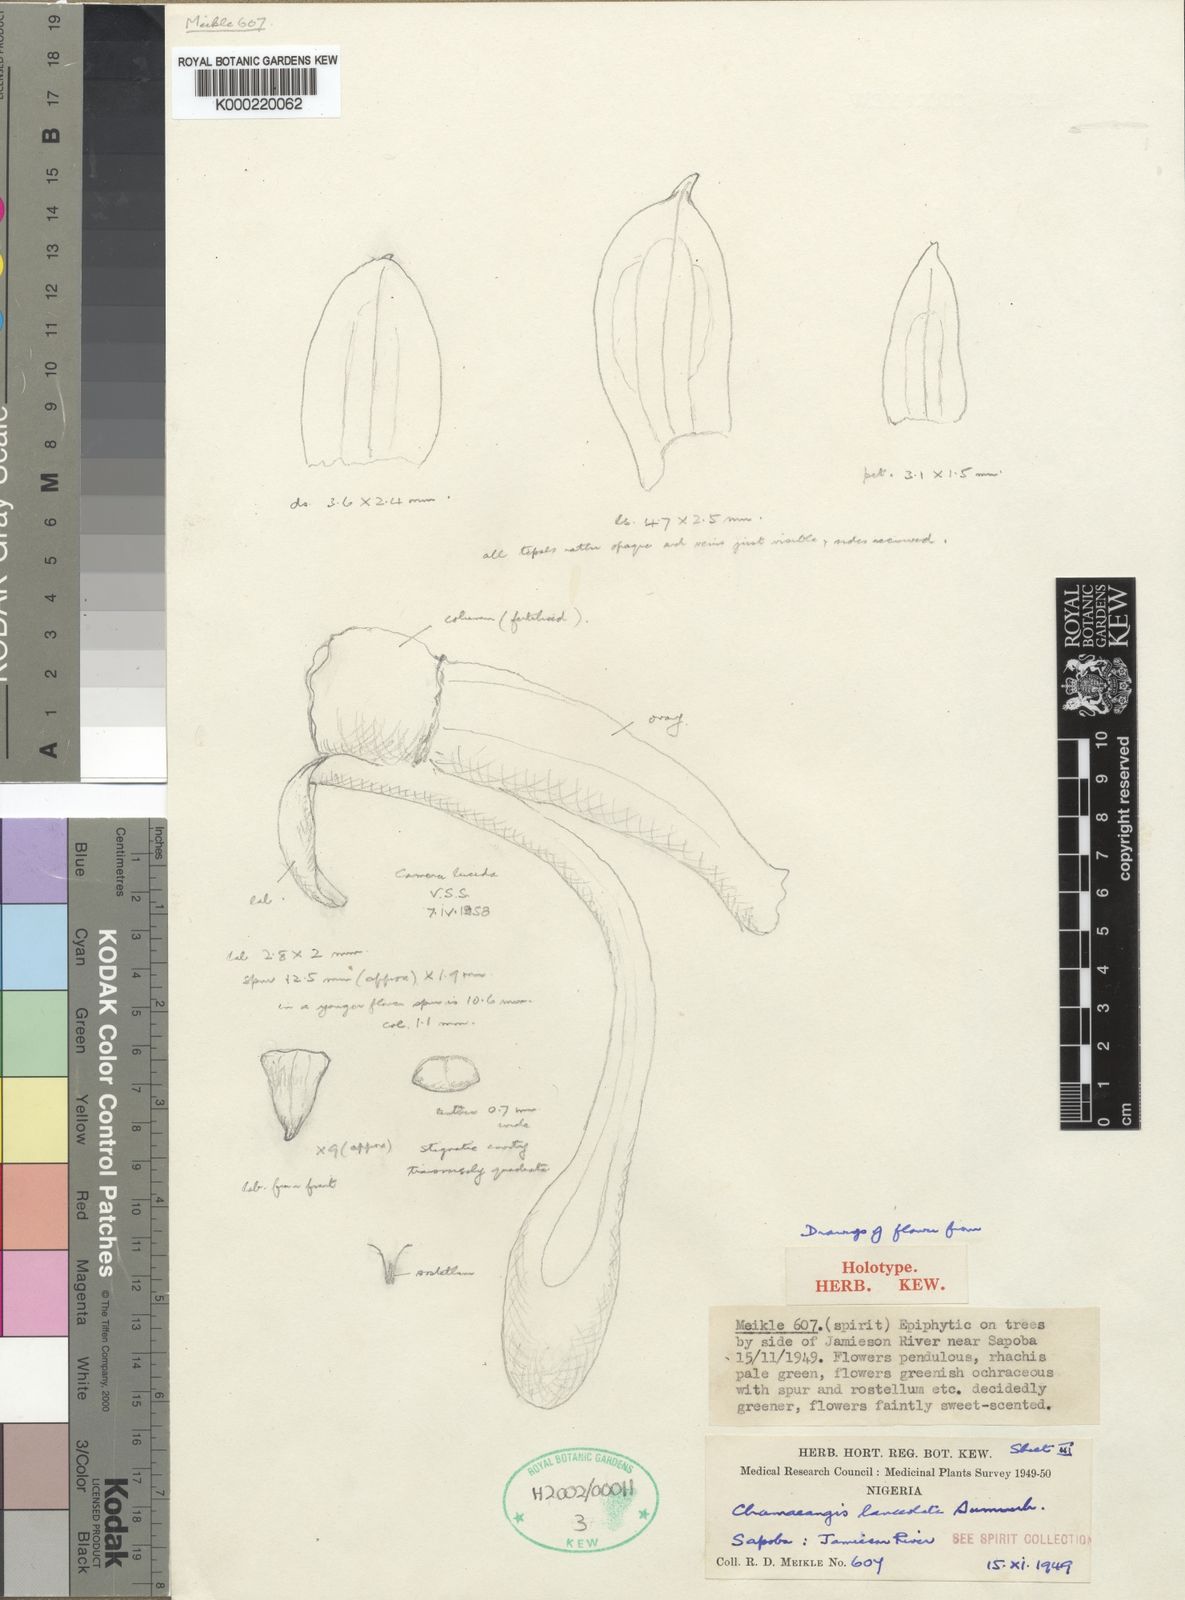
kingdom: Plantae
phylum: Tracheophyta
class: Liliopsida
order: Asparagales
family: Orchidaceae
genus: Diaphananthe
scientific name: Diaphananthe lanceolata
